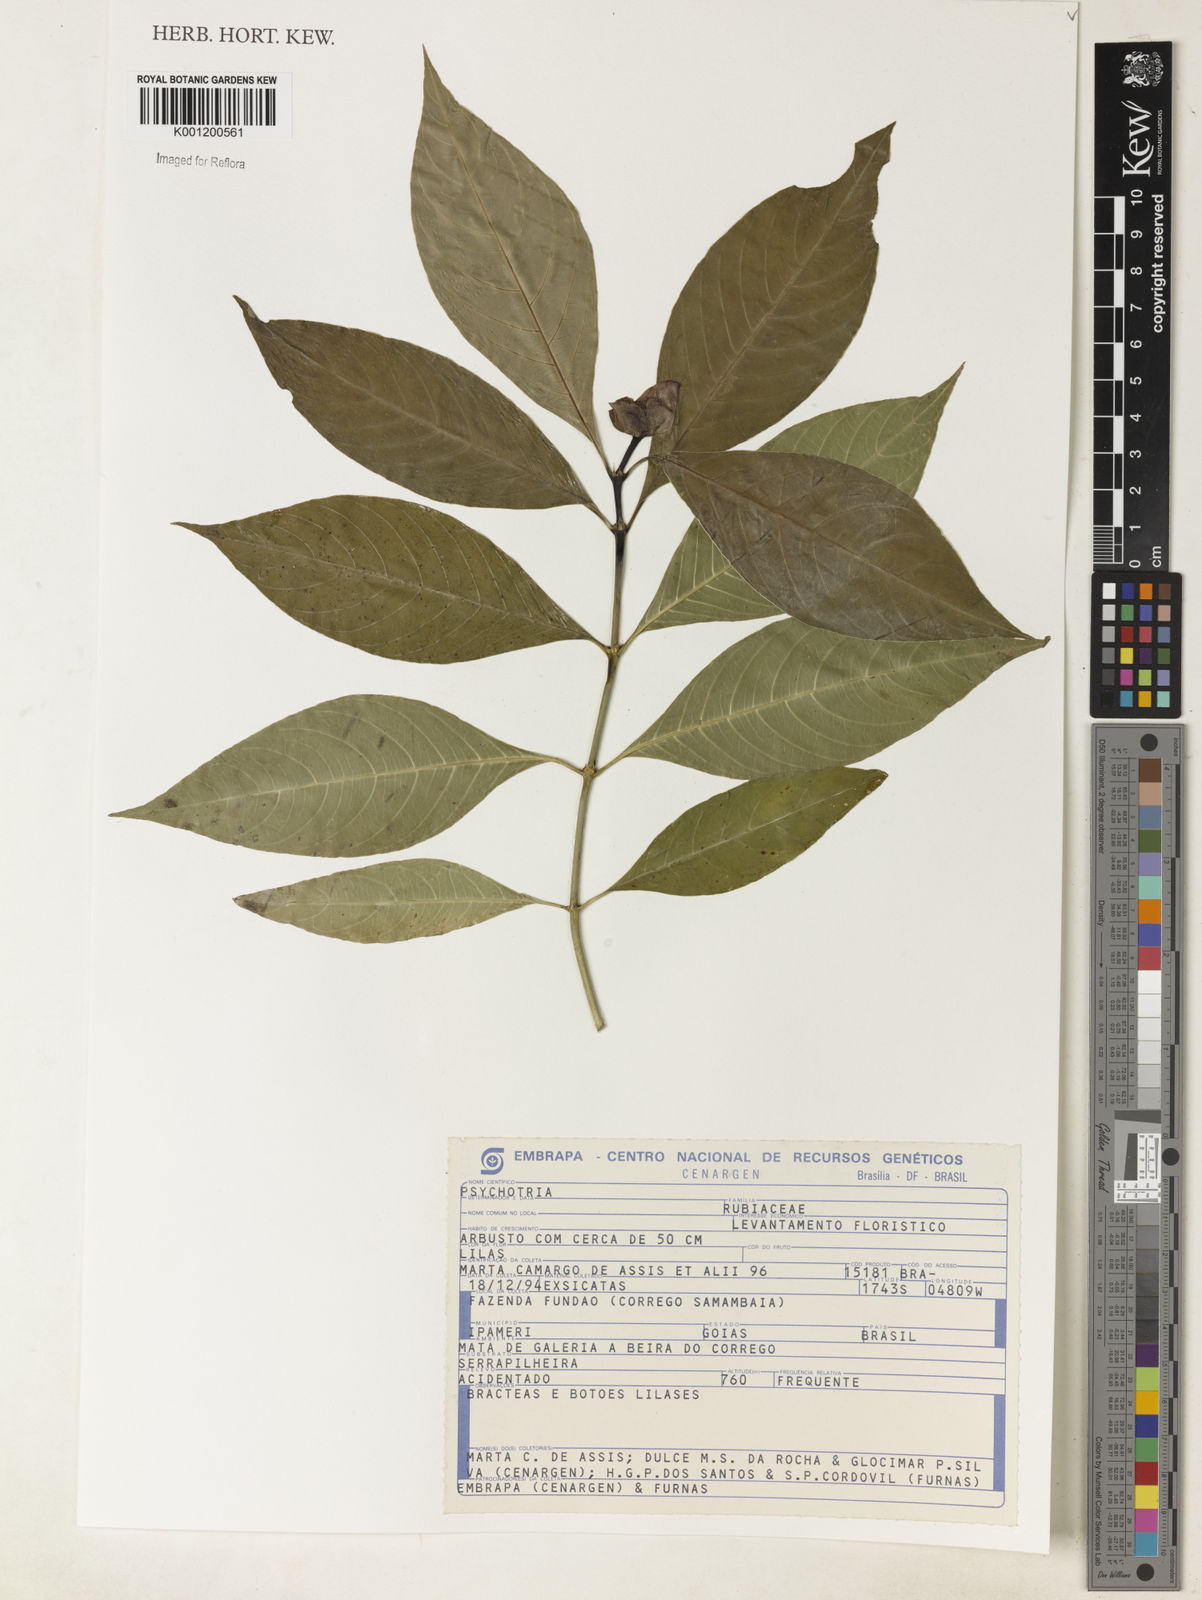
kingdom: Plantae
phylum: Tracheophyta
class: Magnoliopsida
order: Gentianales
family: Rubiaceae
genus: Psychotria
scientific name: Psychotria
